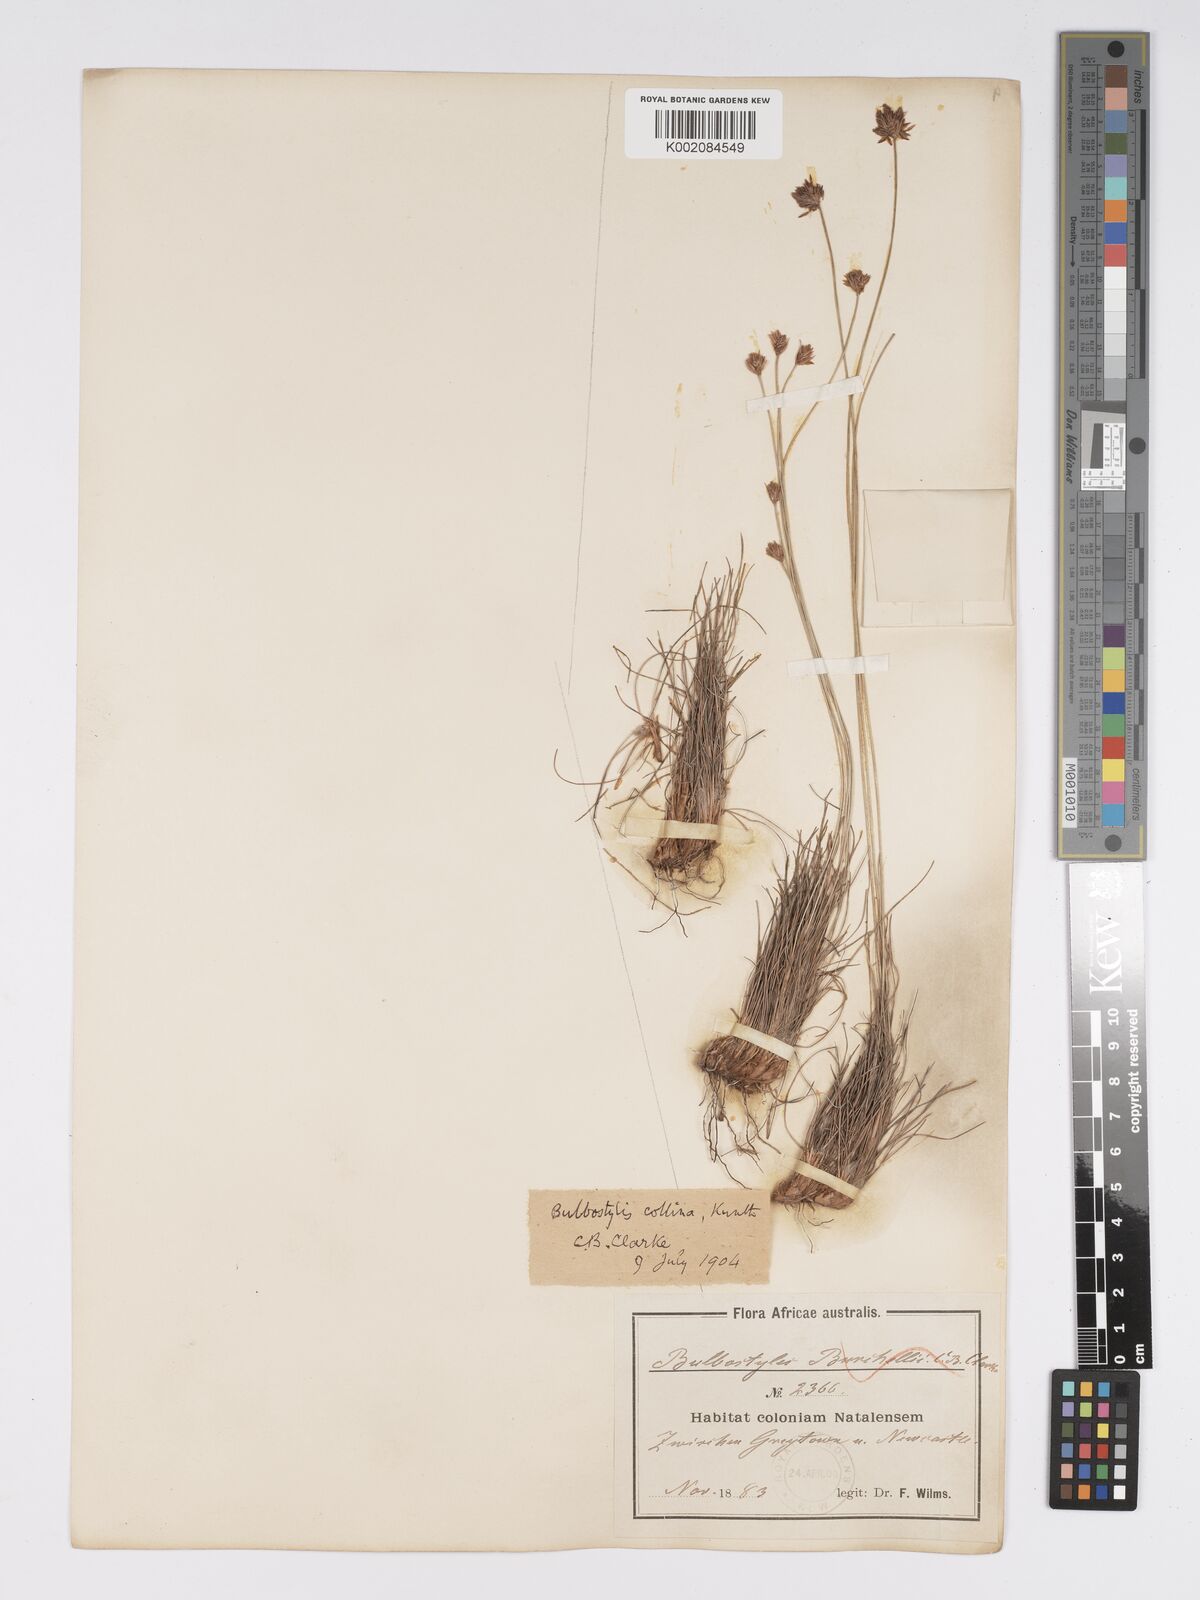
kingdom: Plantae
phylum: Tracheophyta
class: Liliopsida
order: Poales
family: Cyperaceae
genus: Bulbostylis
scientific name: Bulbostylis contexta
